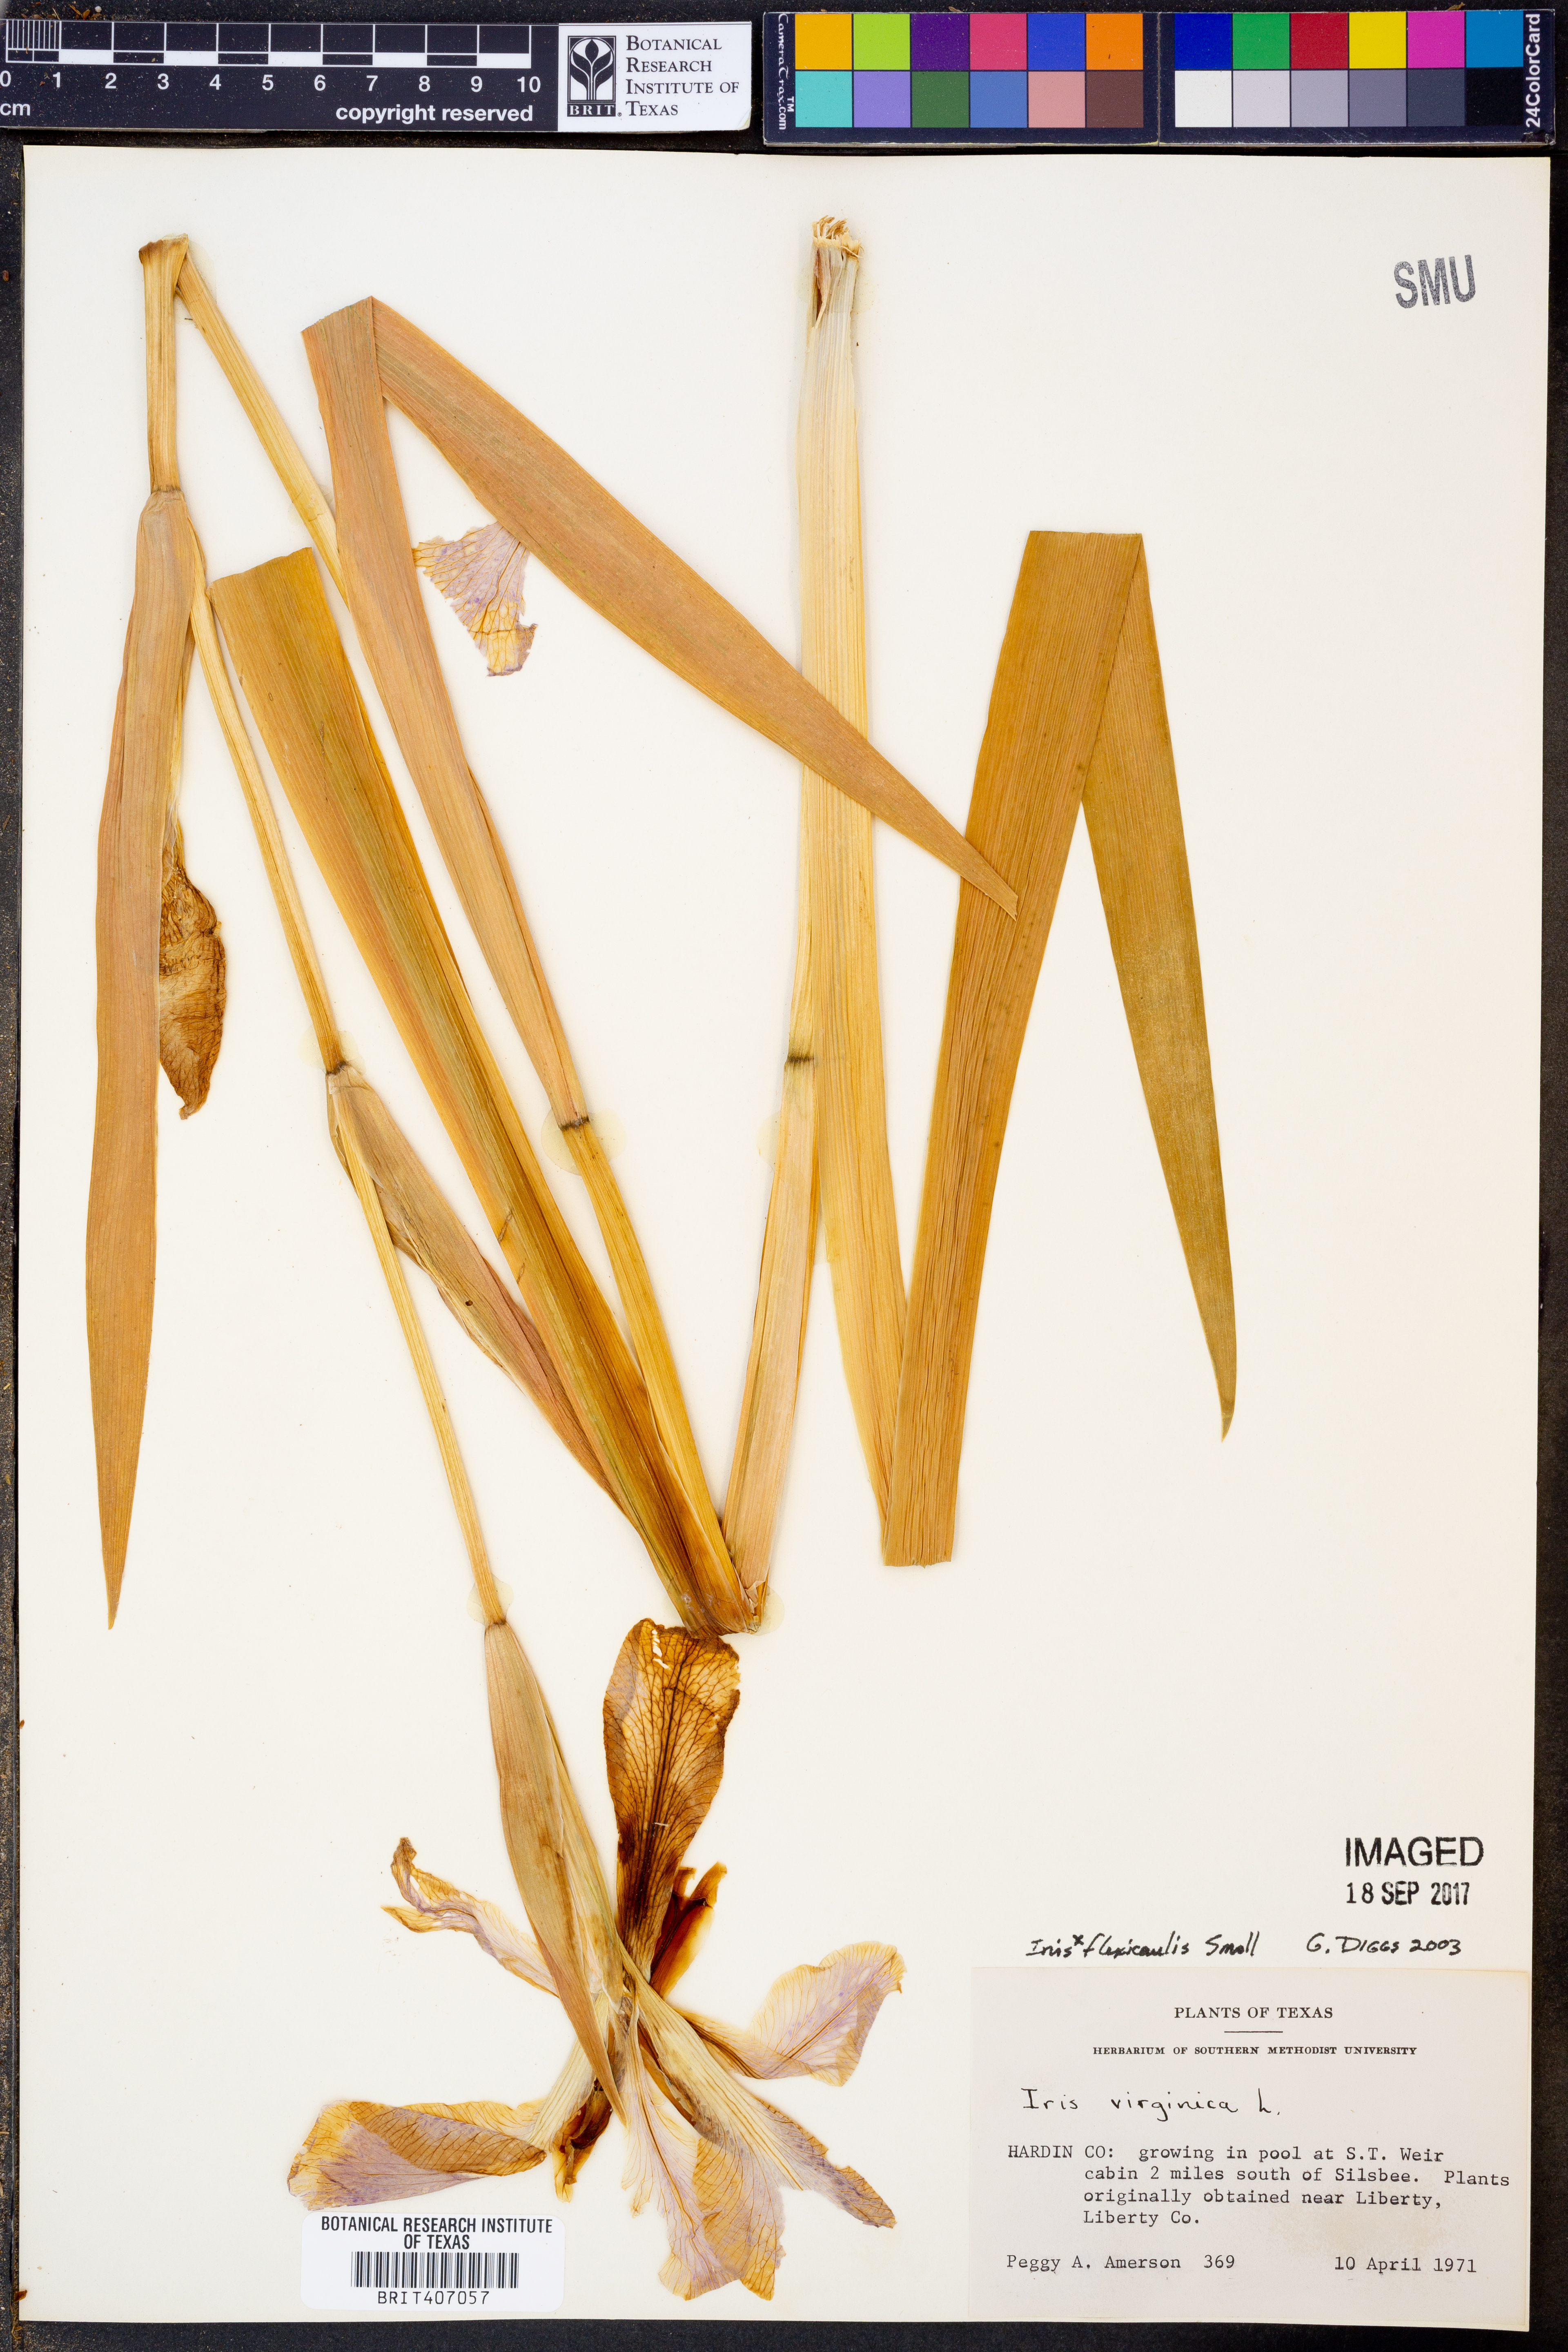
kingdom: Plantae
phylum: Tracheophyta
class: Liliopsida
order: Asparagales
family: Iridaceae
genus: Iris
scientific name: Iris flexicaulis
